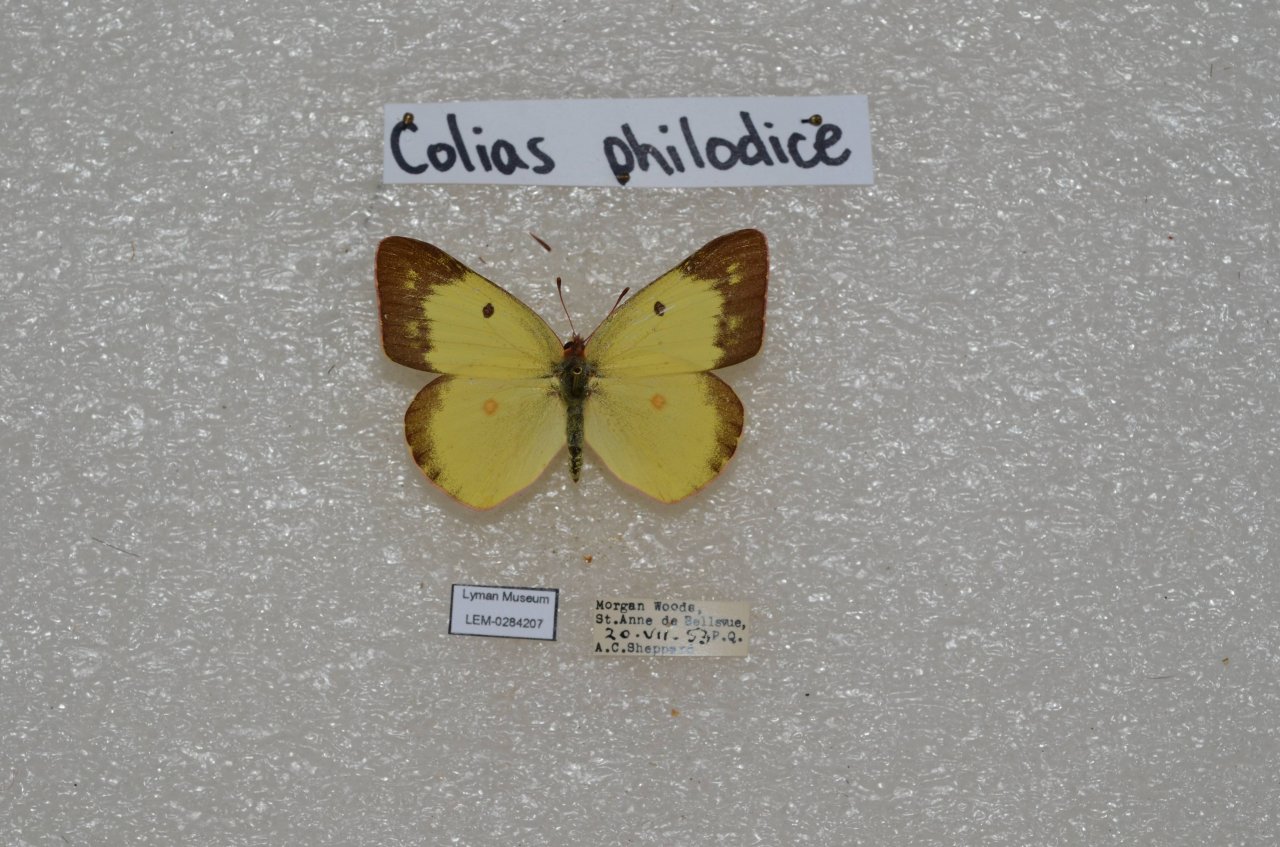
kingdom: Animalia
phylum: Arthropoda
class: Insecta
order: Lepidoptera
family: Pieridae
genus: Colias
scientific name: Colias philodice
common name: Clouded Sulphur
